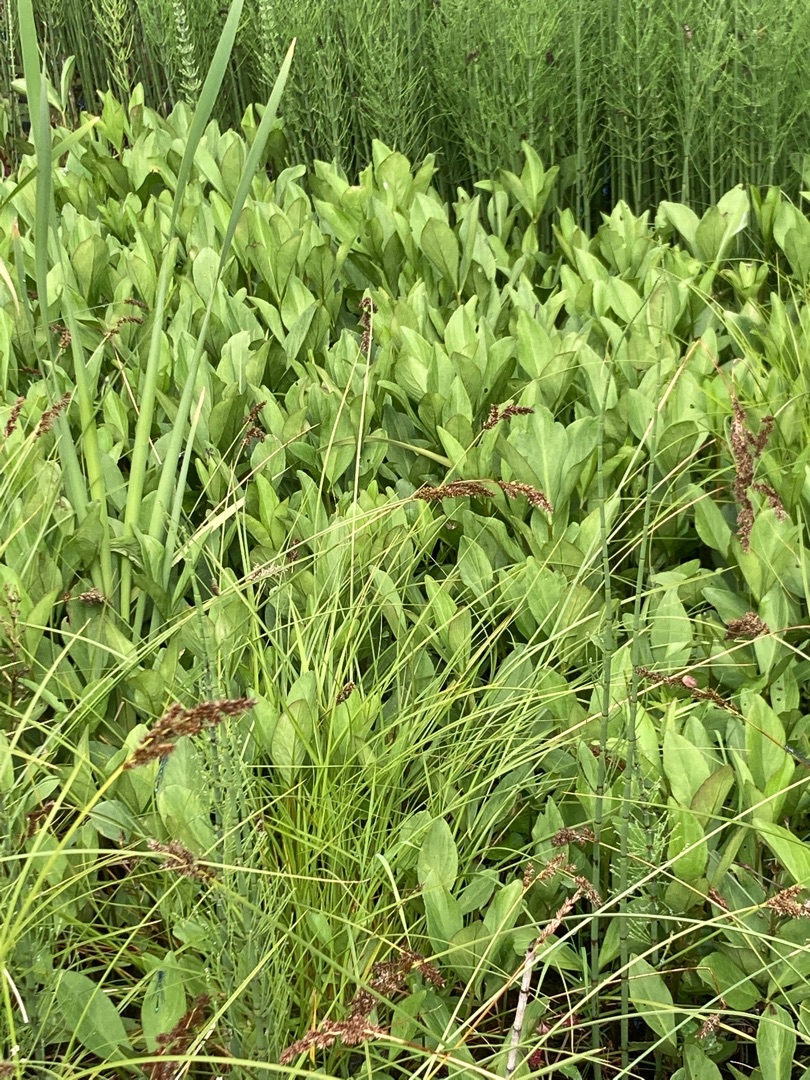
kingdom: Plantae
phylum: Tracheophyta
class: Magnoliopsida
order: Asterales
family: Menyanthaceae
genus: Menyanthes
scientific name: Menyanthes trifoliata
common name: Bukkeblad
